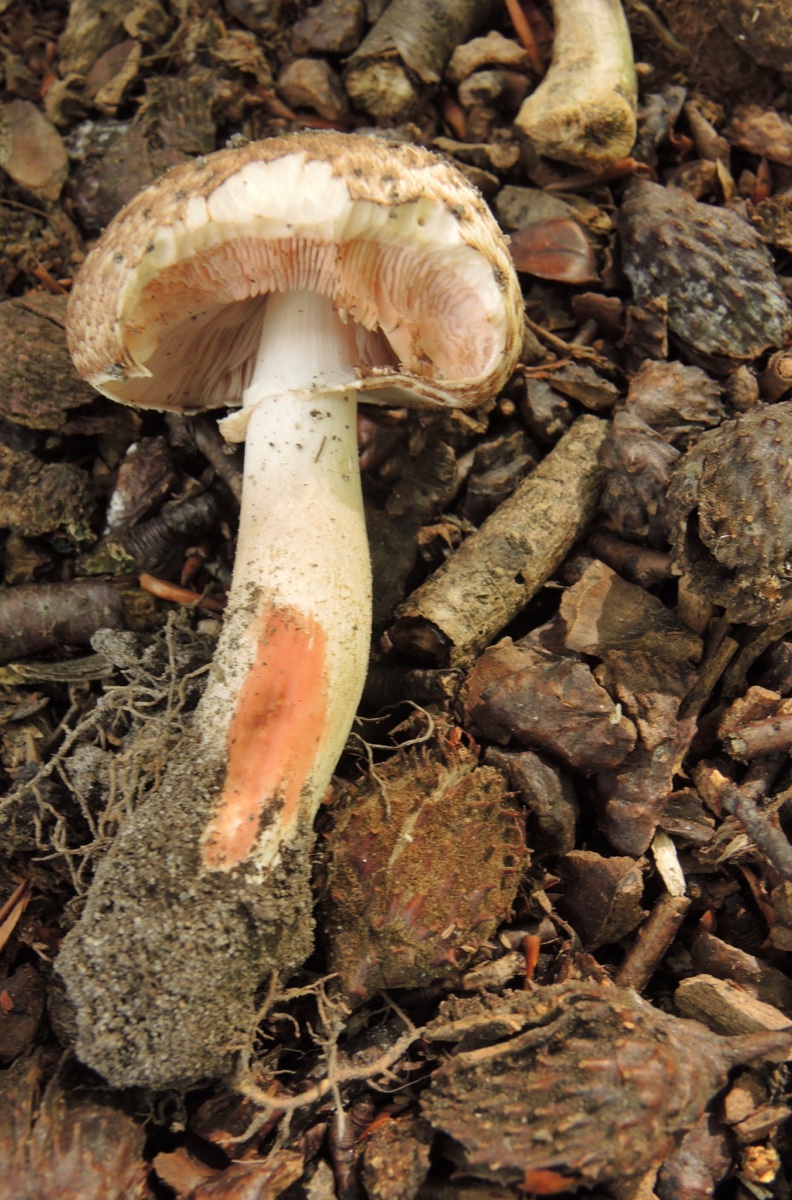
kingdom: Fungi
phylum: Basidiomycota
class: Agaricomycetes
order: Agaricales
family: Agaricaceae
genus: Agaricus
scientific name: Agaricus langei
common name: stor blod-champignon
